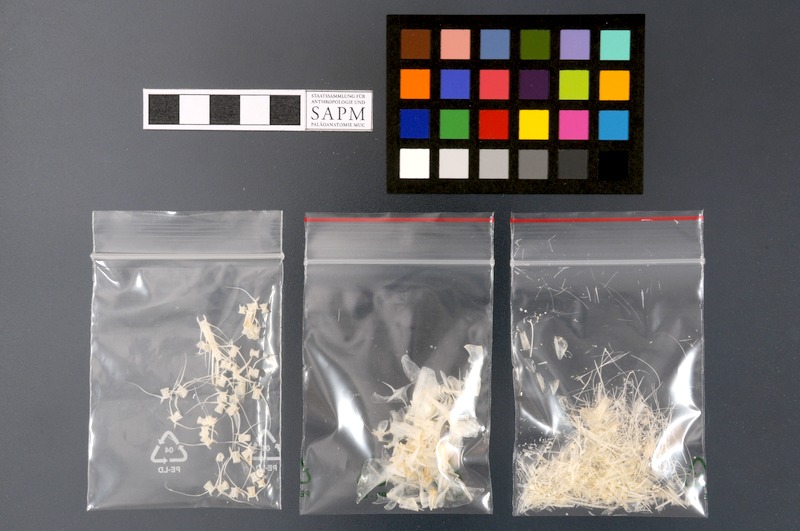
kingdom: Animalia
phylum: Chordata
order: Clupeiformes
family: Clupeidae
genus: Amblygaster
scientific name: Amblygaster sirm
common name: Spotted sardinella
